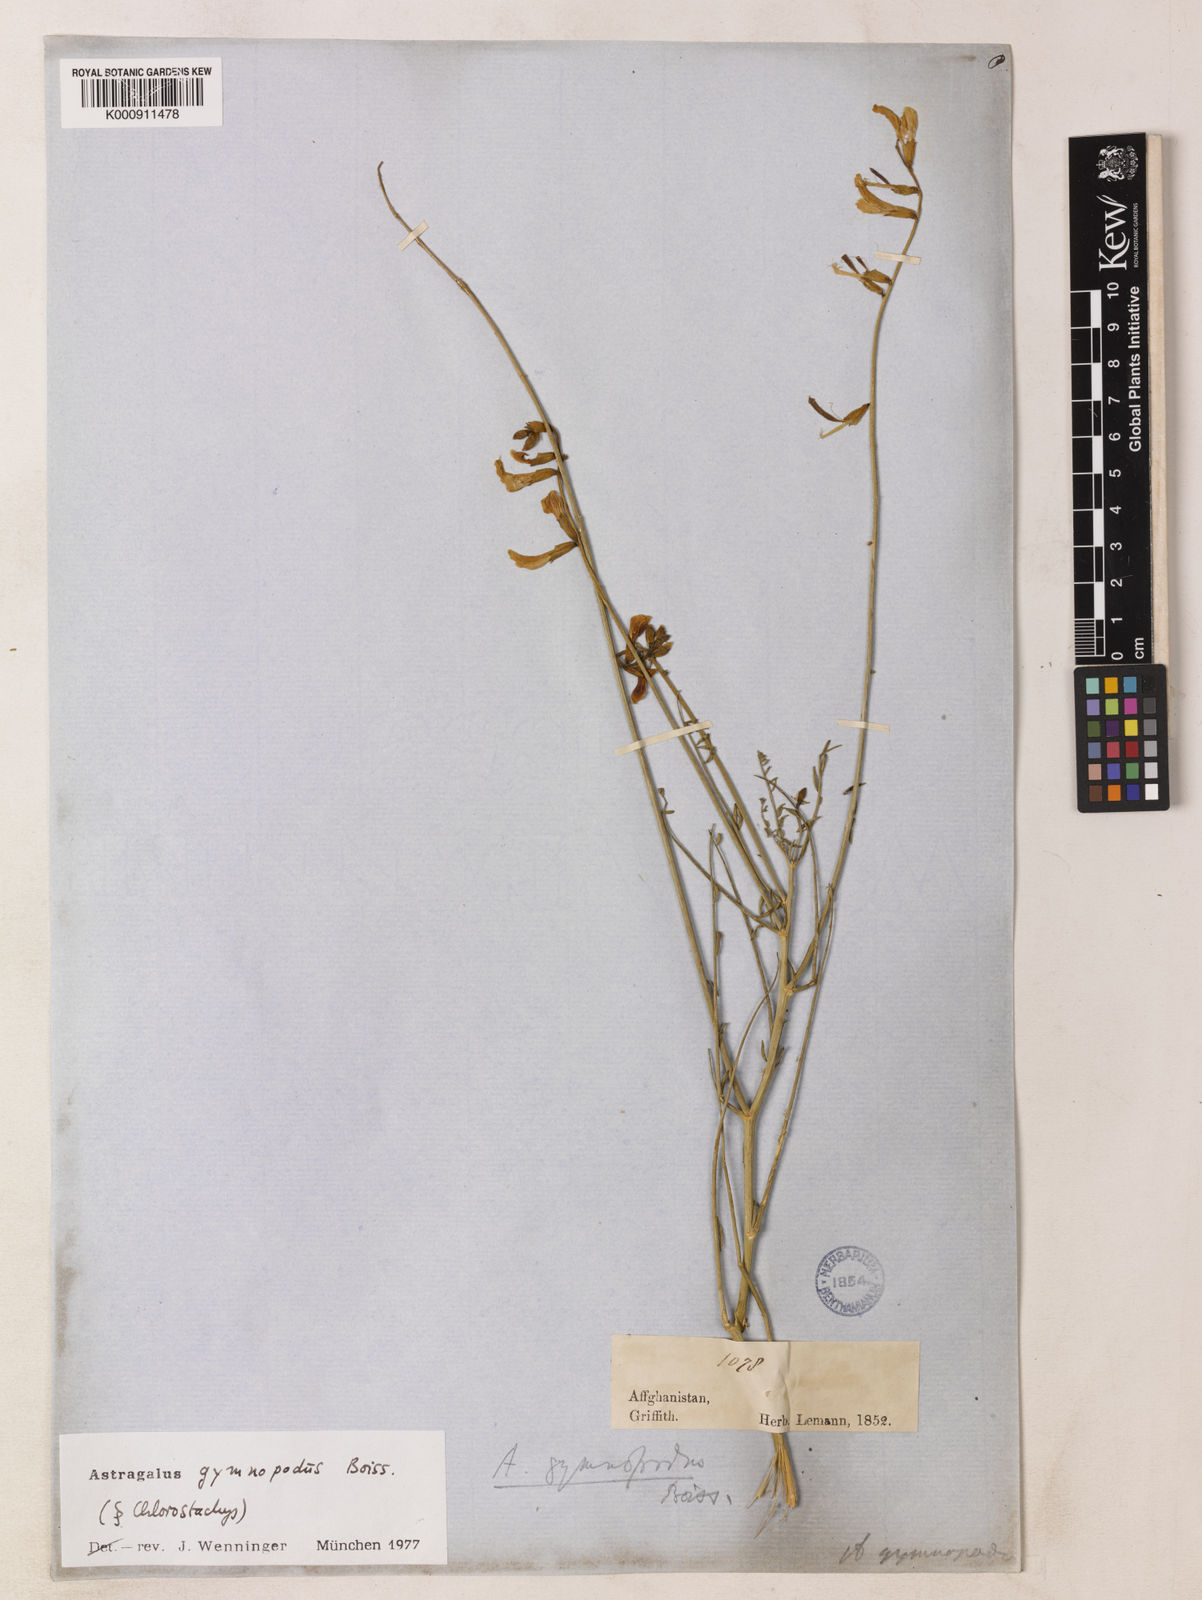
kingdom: Plantae
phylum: Tracheophyta
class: Magnoliopsida
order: Fabales
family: Fabaceae
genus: Astragalus
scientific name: Astragalus gymnopodus
